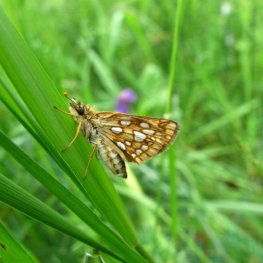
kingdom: Animalia
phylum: Arthropoda
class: Insecta
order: Lepidoptera
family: Hesperiidae
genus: Carterocephalus
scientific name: Carterocephalus palaemon
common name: Chequered Skipper
